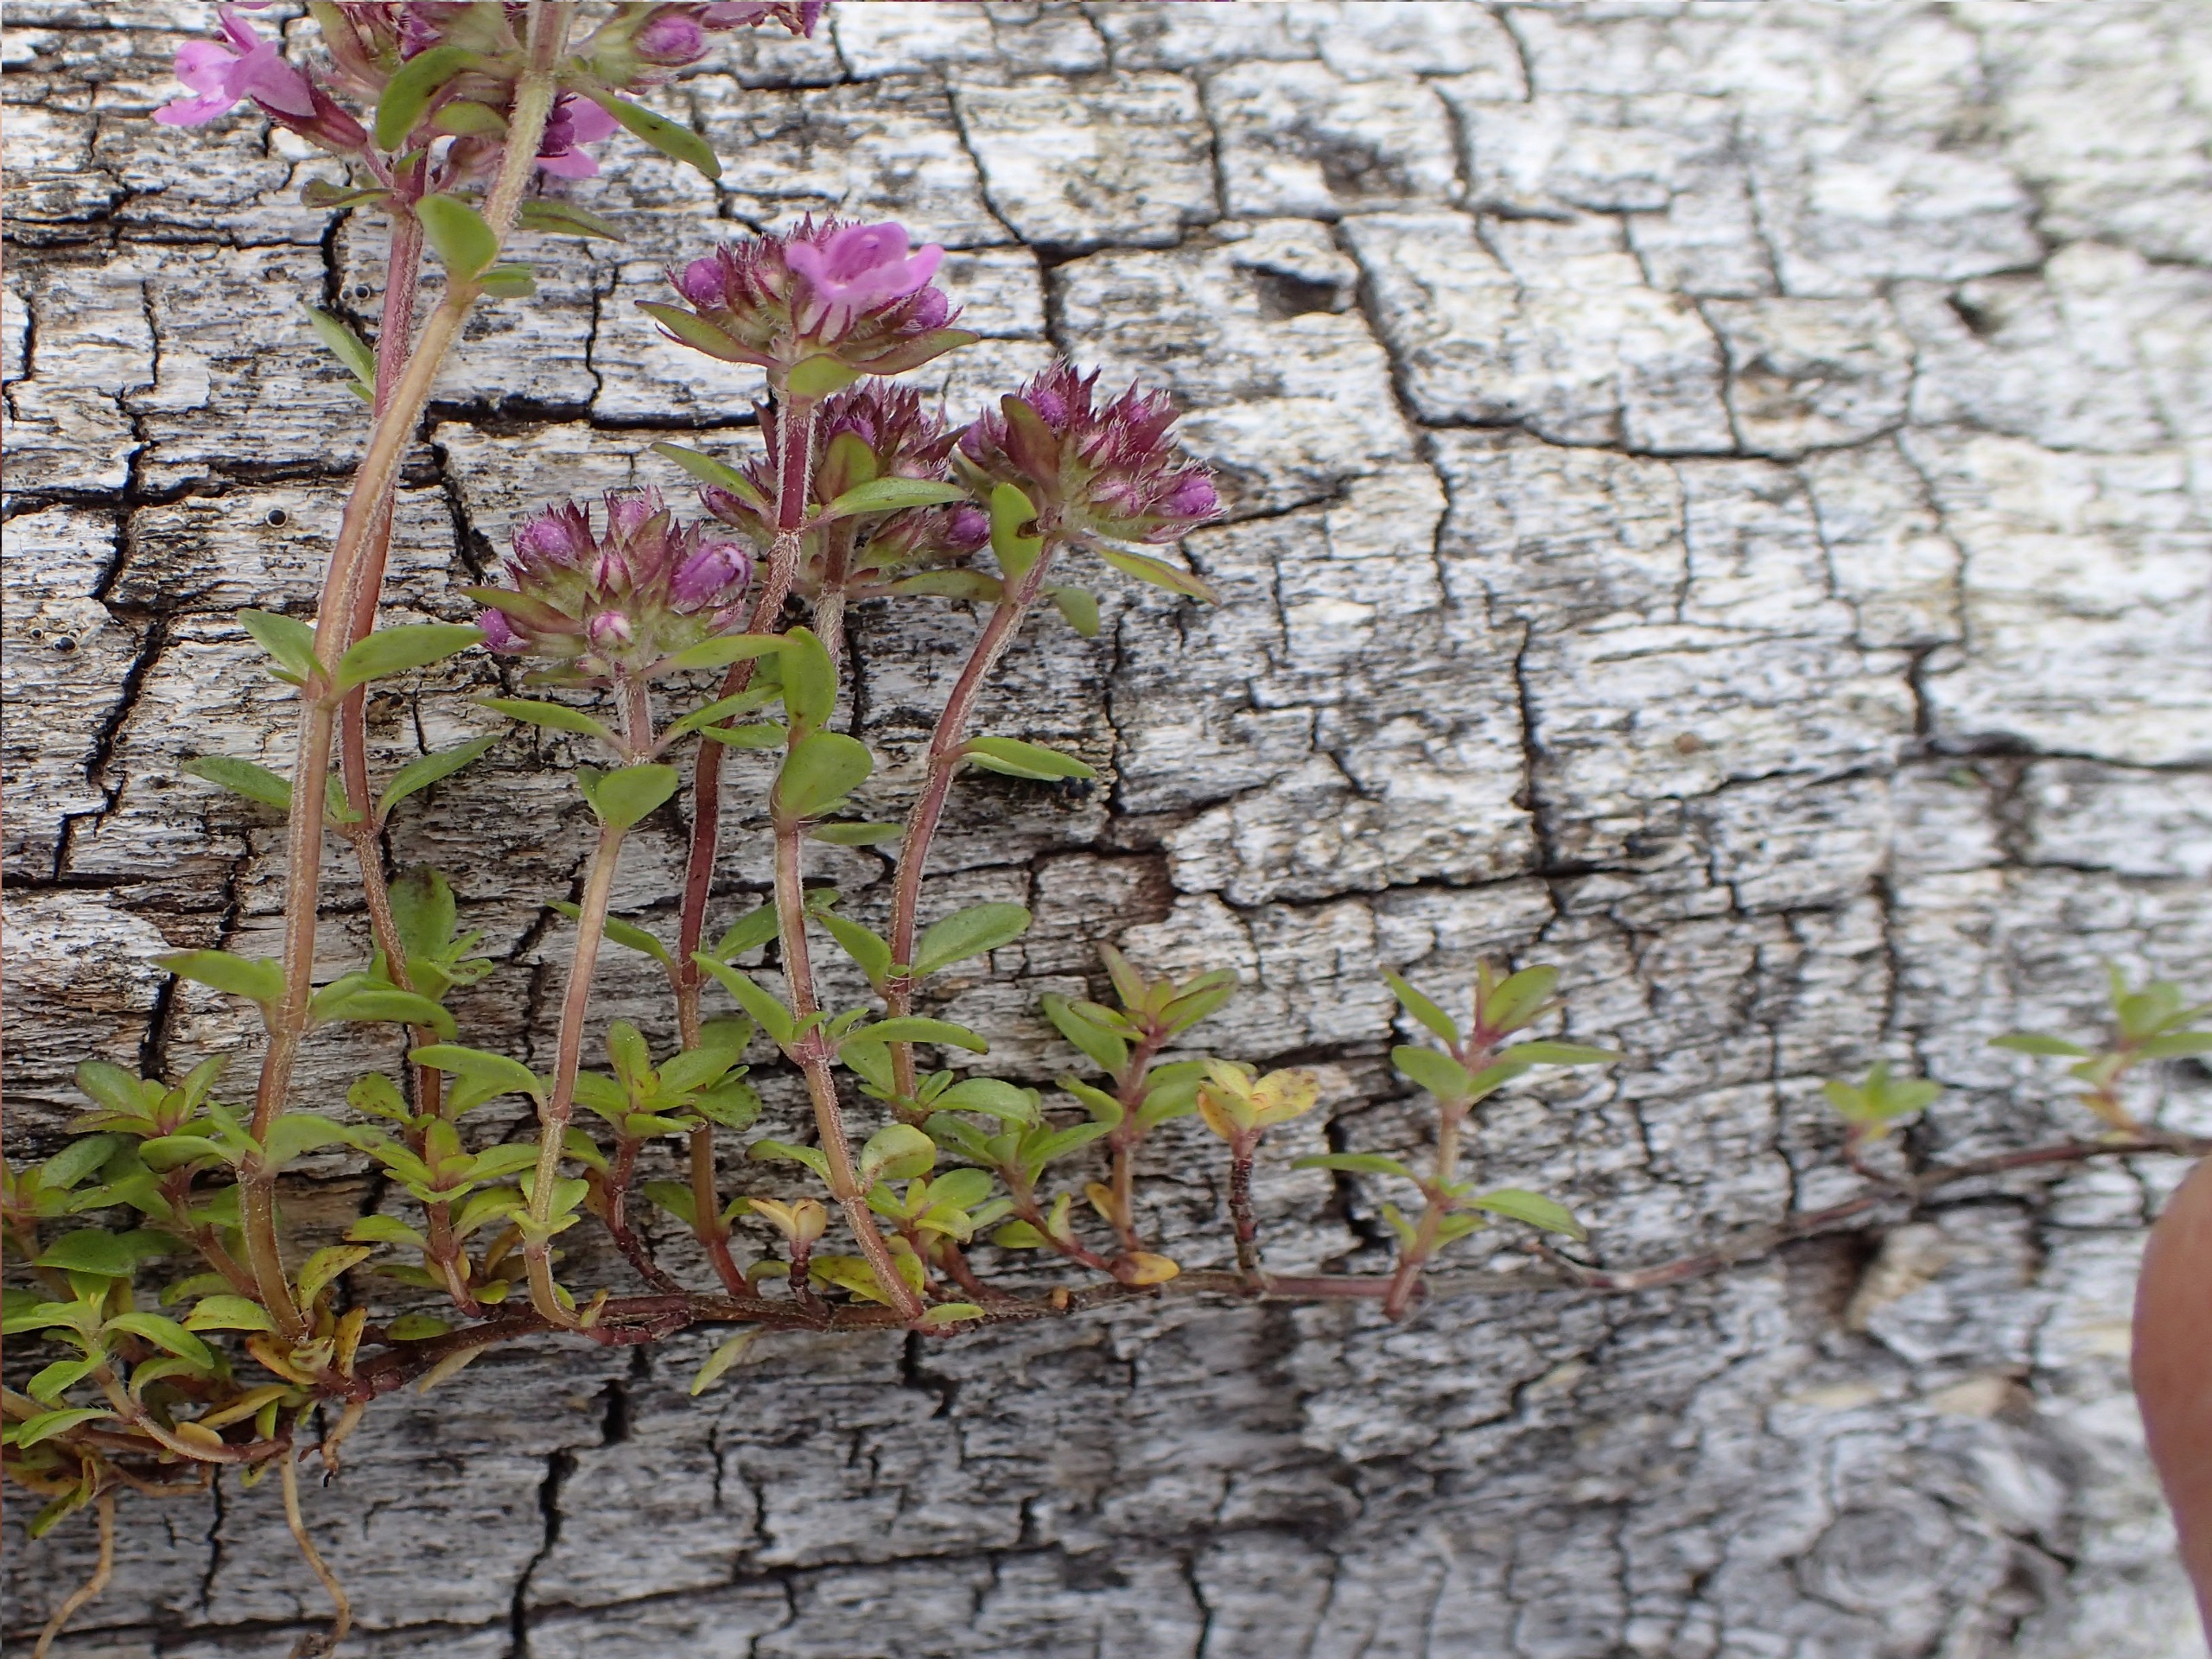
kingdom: Plantae
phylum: Tracheophyta
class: Magnoliopsida
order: Lamiales
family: Lamiaceae
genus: Thymus
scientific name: Thymus serpyllum
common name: Smalbladet timian
